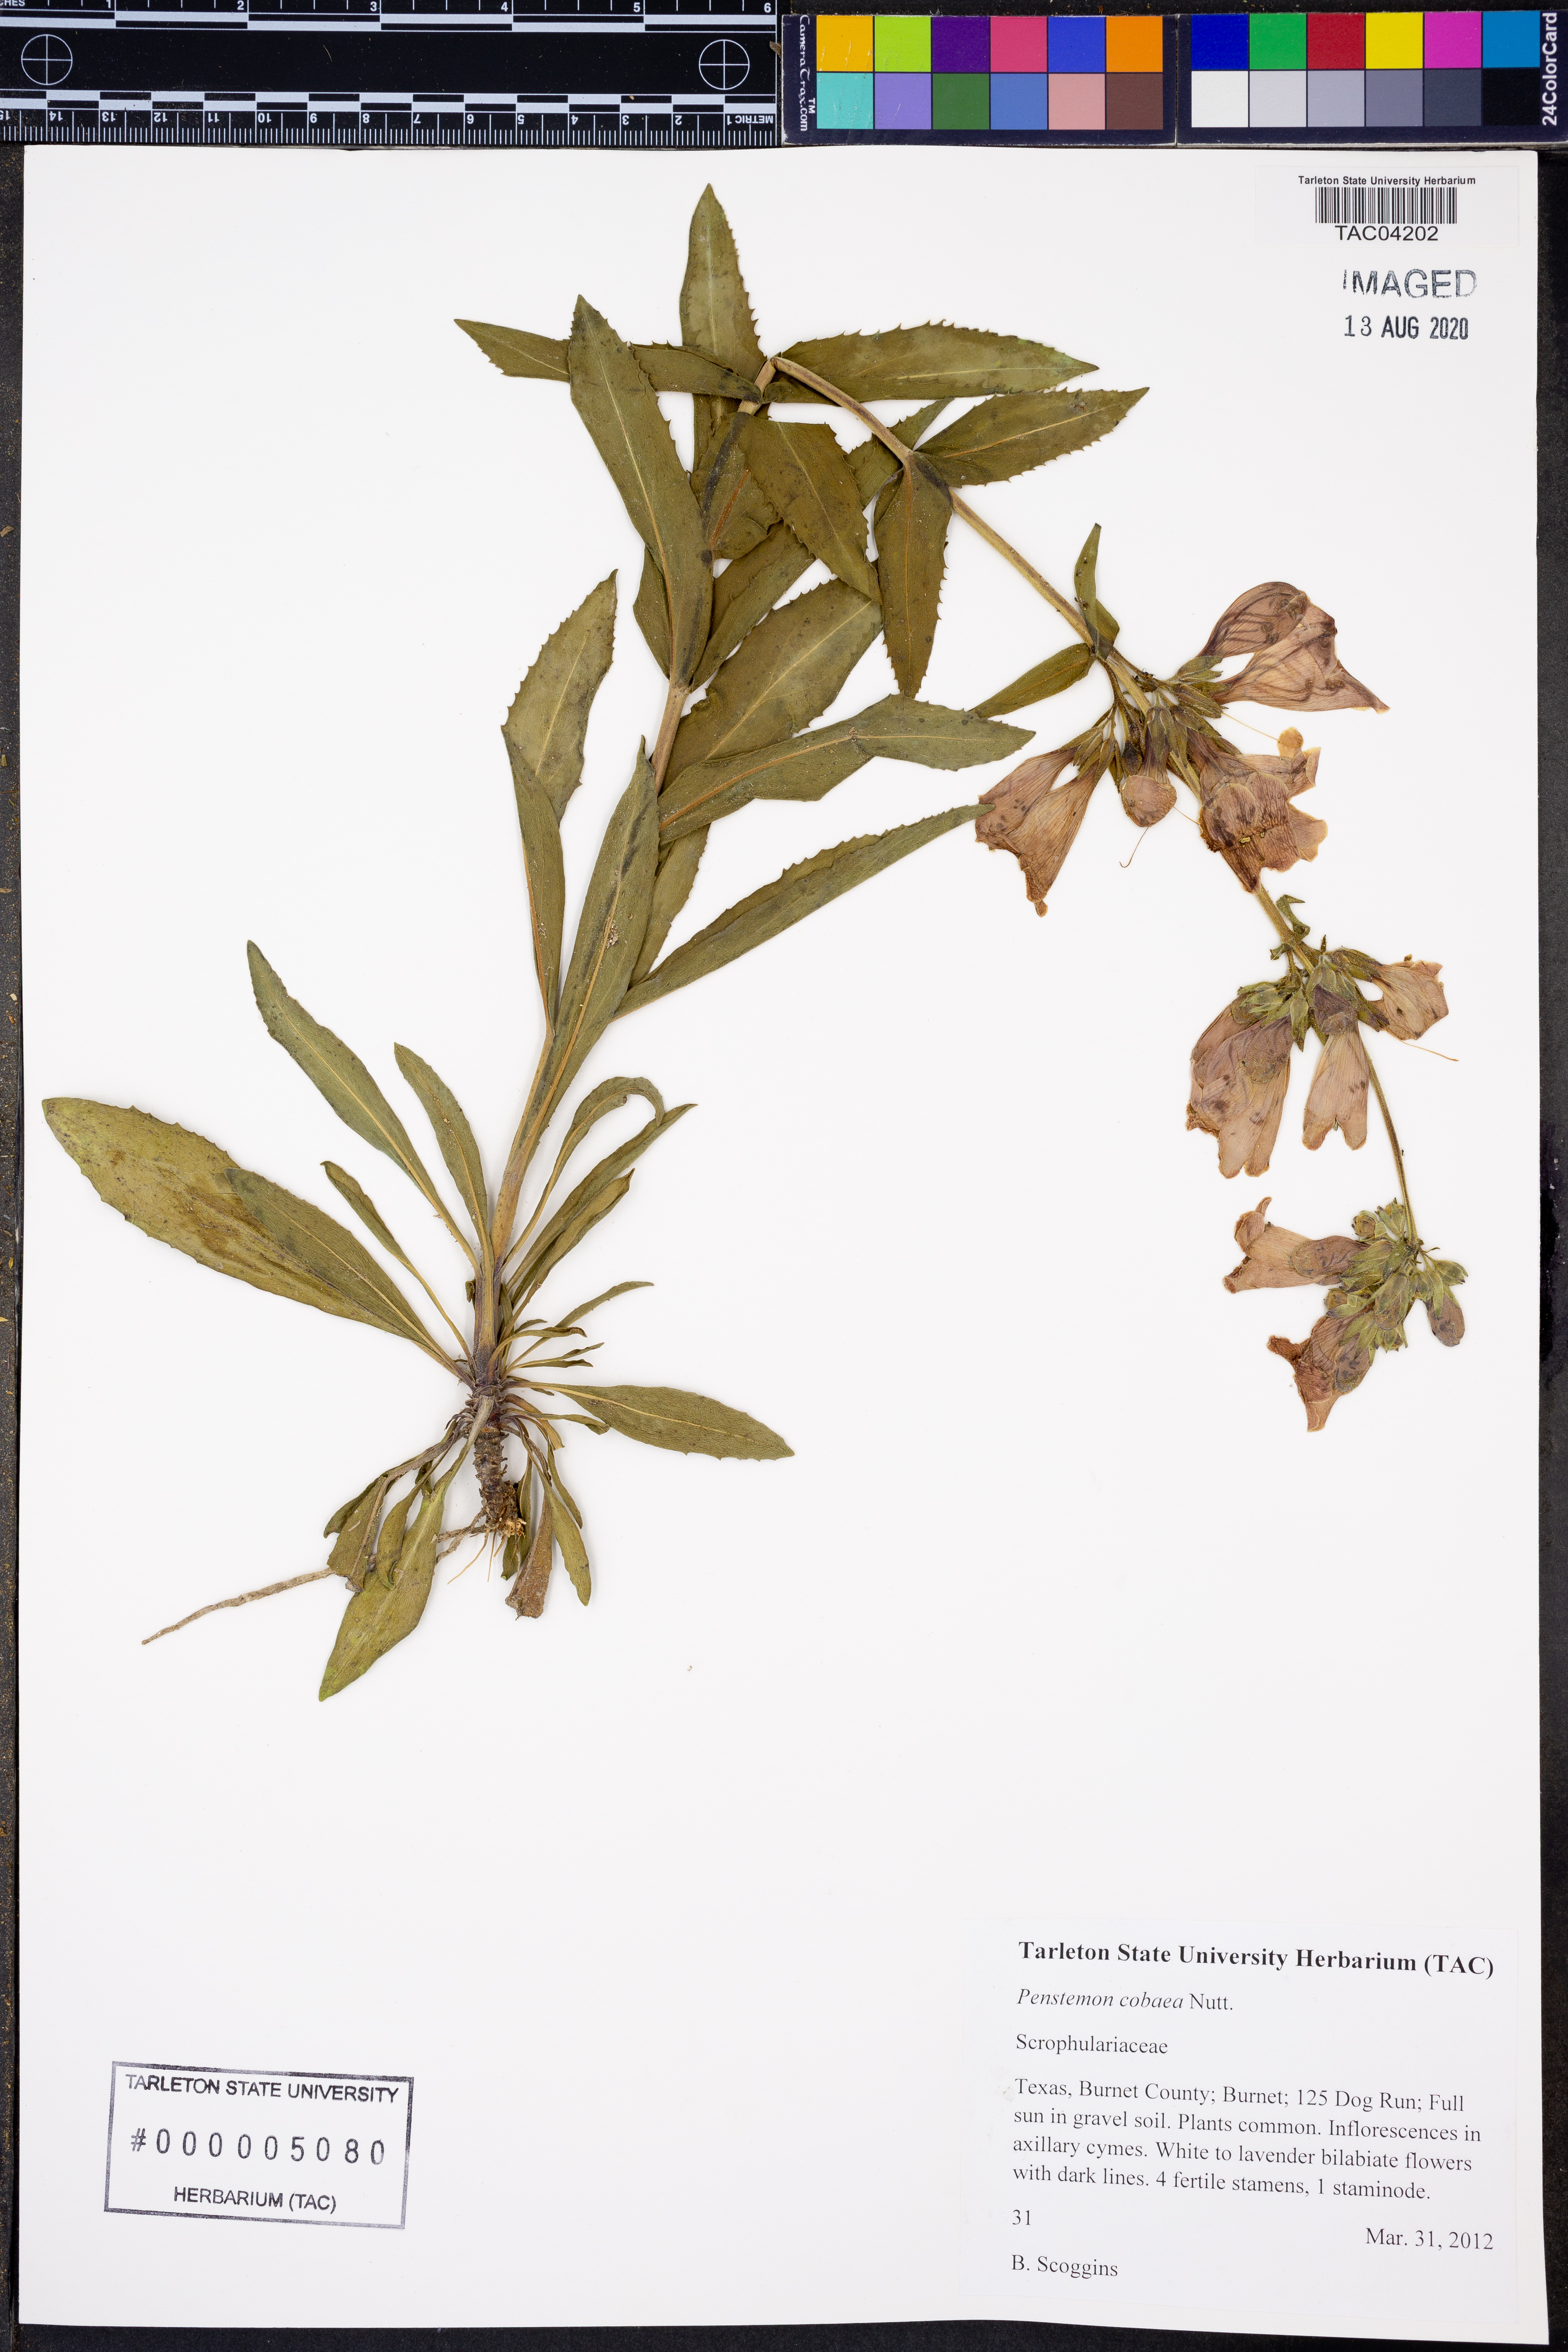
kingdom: Plantae
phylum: Tracheophyta
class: Magnoliopsida
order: Lamiales
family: Plantaginaceae
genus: Penstemon
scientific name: Penstemon cobaea
